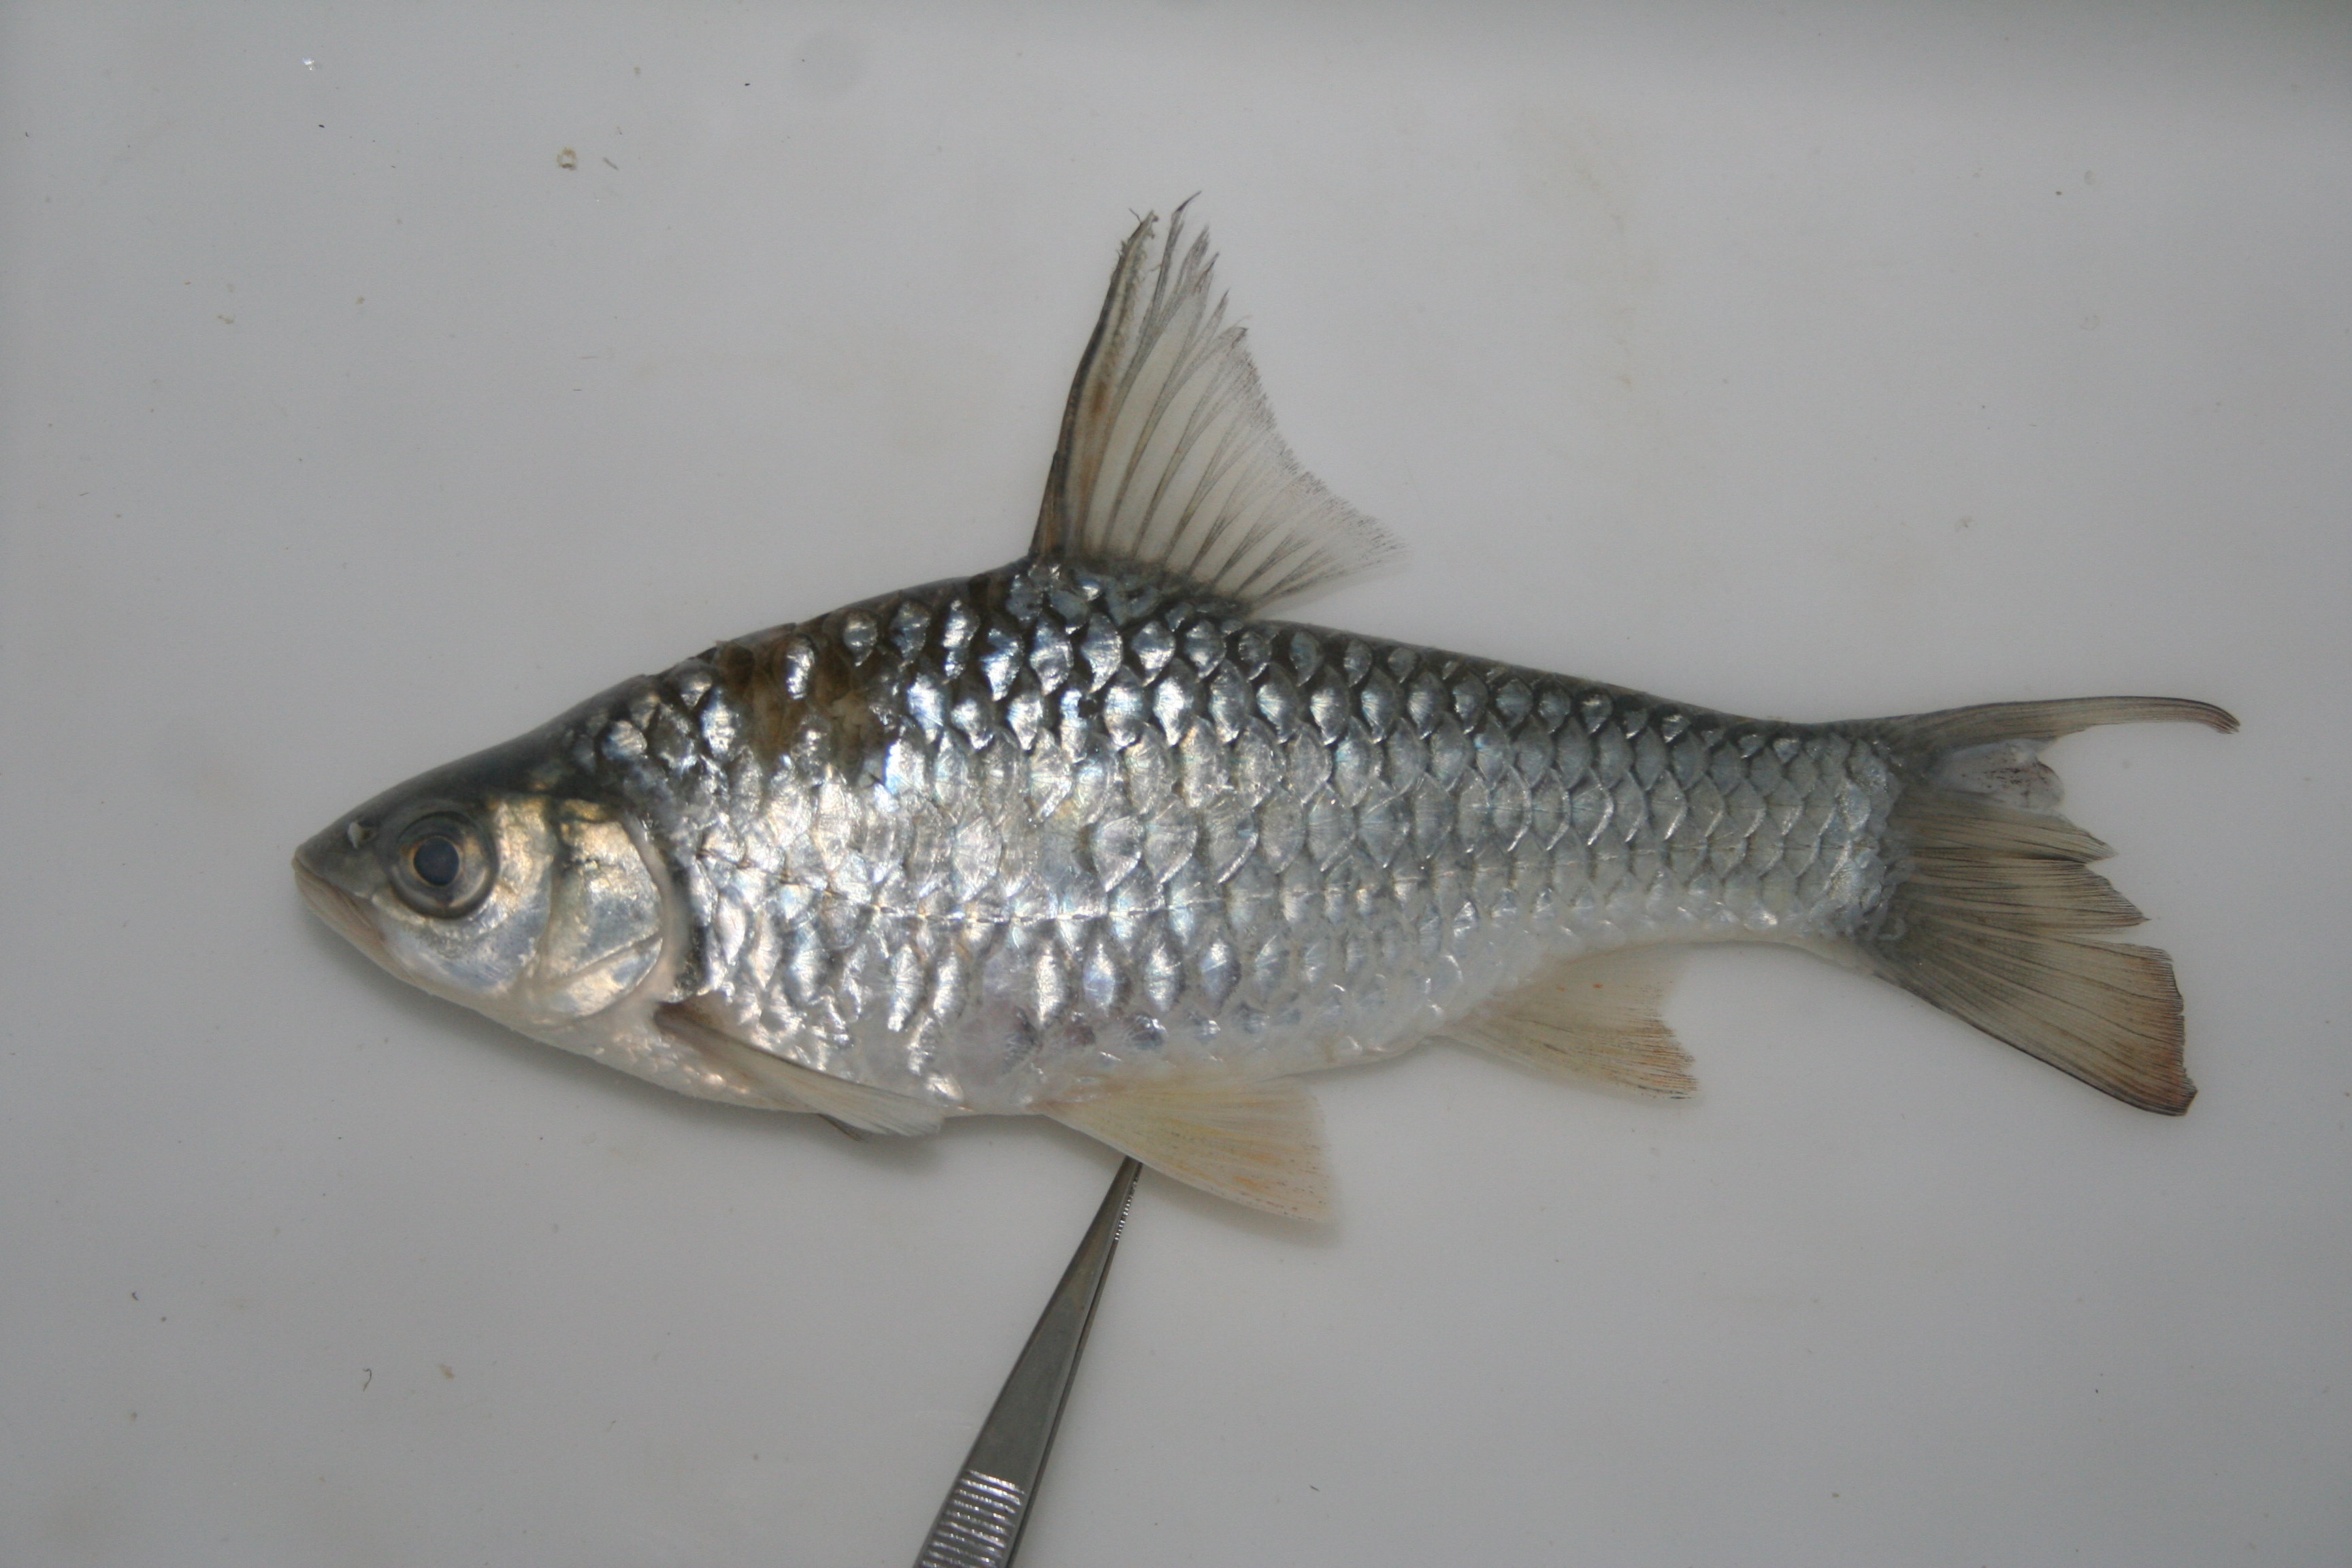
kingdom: Animalia
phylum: Chordata
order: Cypriniformes
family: Cyprinidae
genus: Enteromius
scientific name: Enteromius argenteus
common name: Rosefin barb
